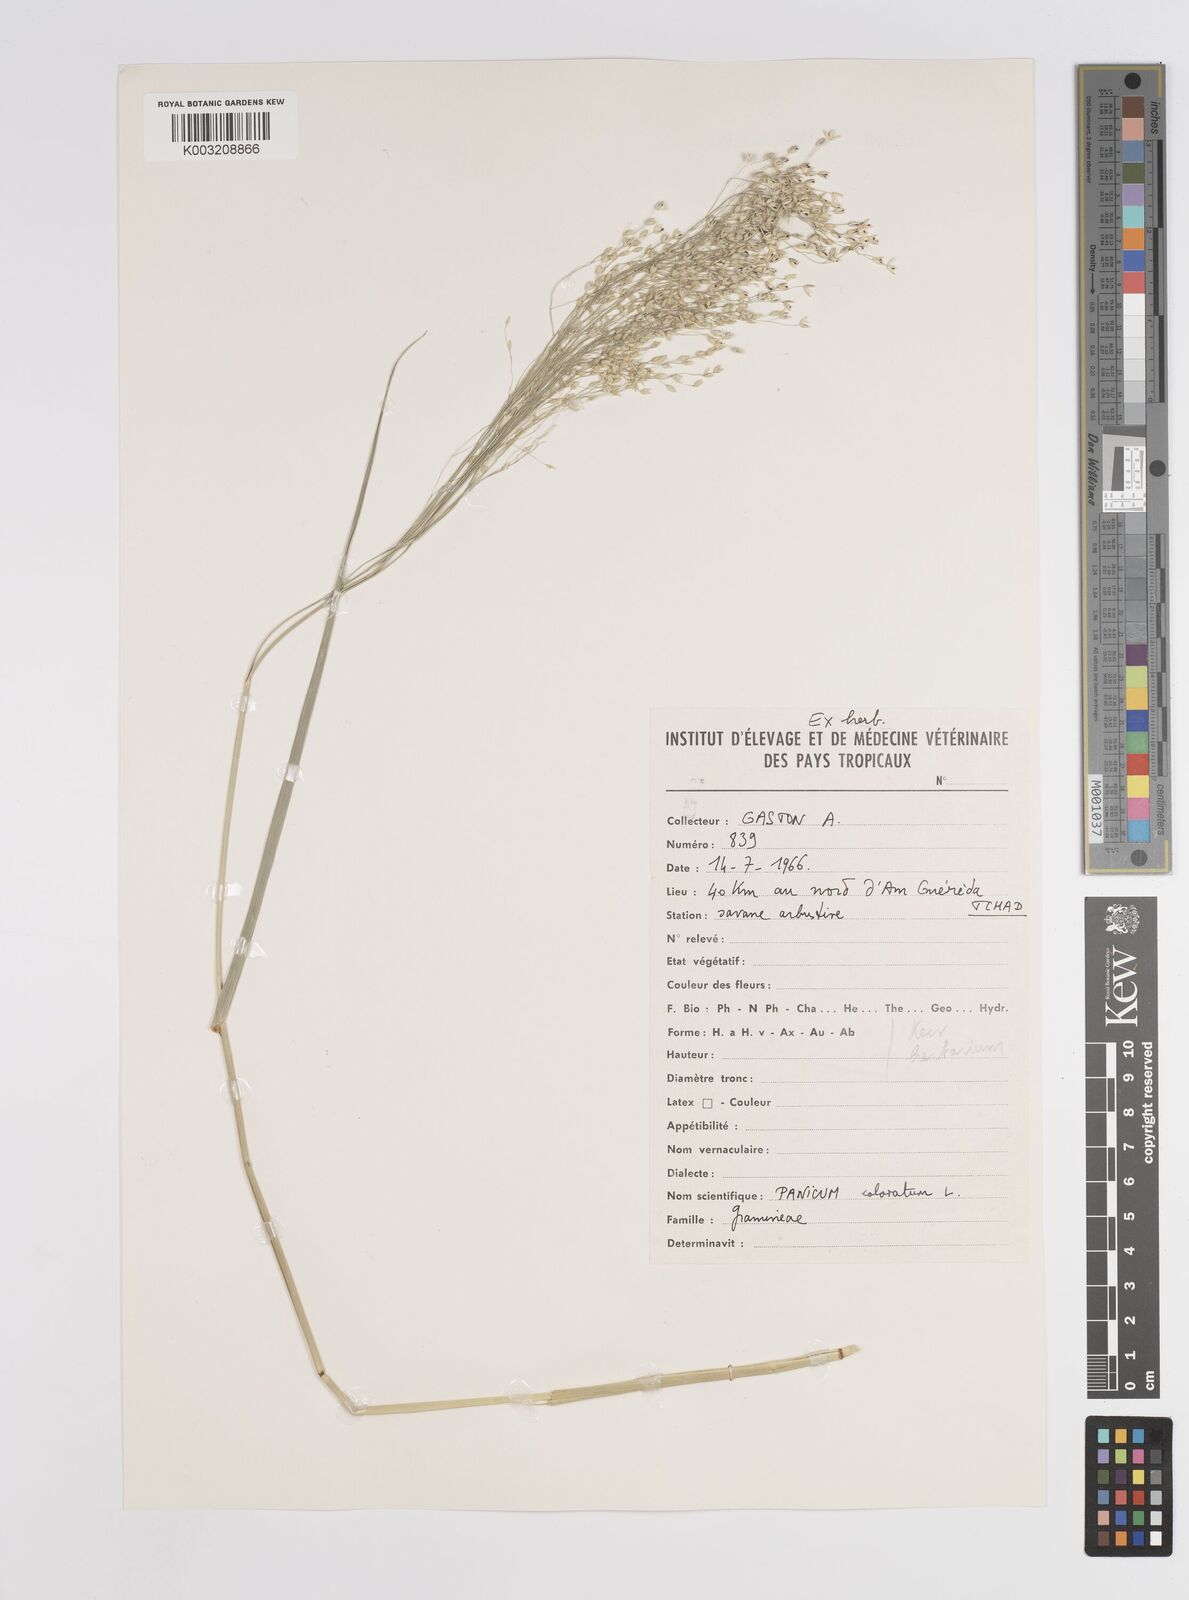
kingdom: Plantae
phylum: Tracheophyta
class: Liliopsida
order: Poales
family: Poaceae
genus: Panicum
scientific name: Panicum coloratum
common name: Kleingrass
